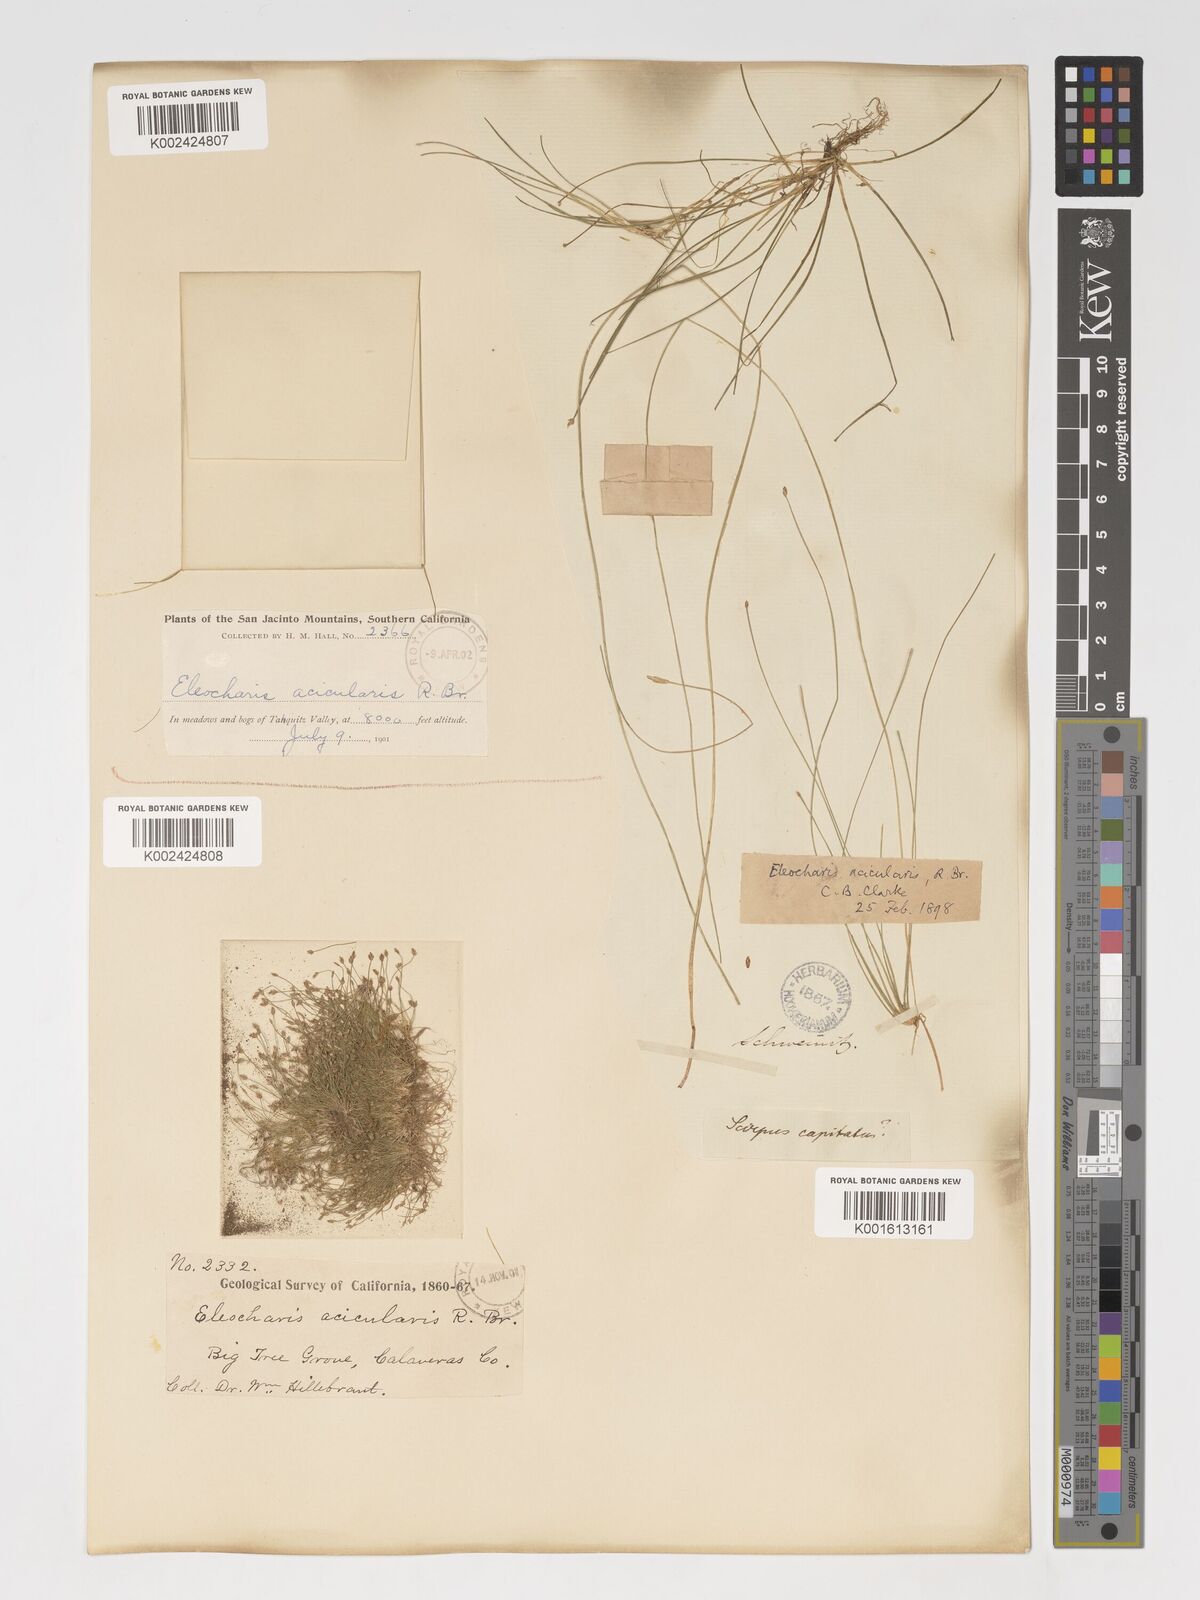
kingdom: Plantae
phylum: Tracheophyta
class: Liliopsida
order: Poales
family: Cyperaceae
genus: Eleocharis
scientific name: Eleocharis acicularis
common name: Needle spike-rush
